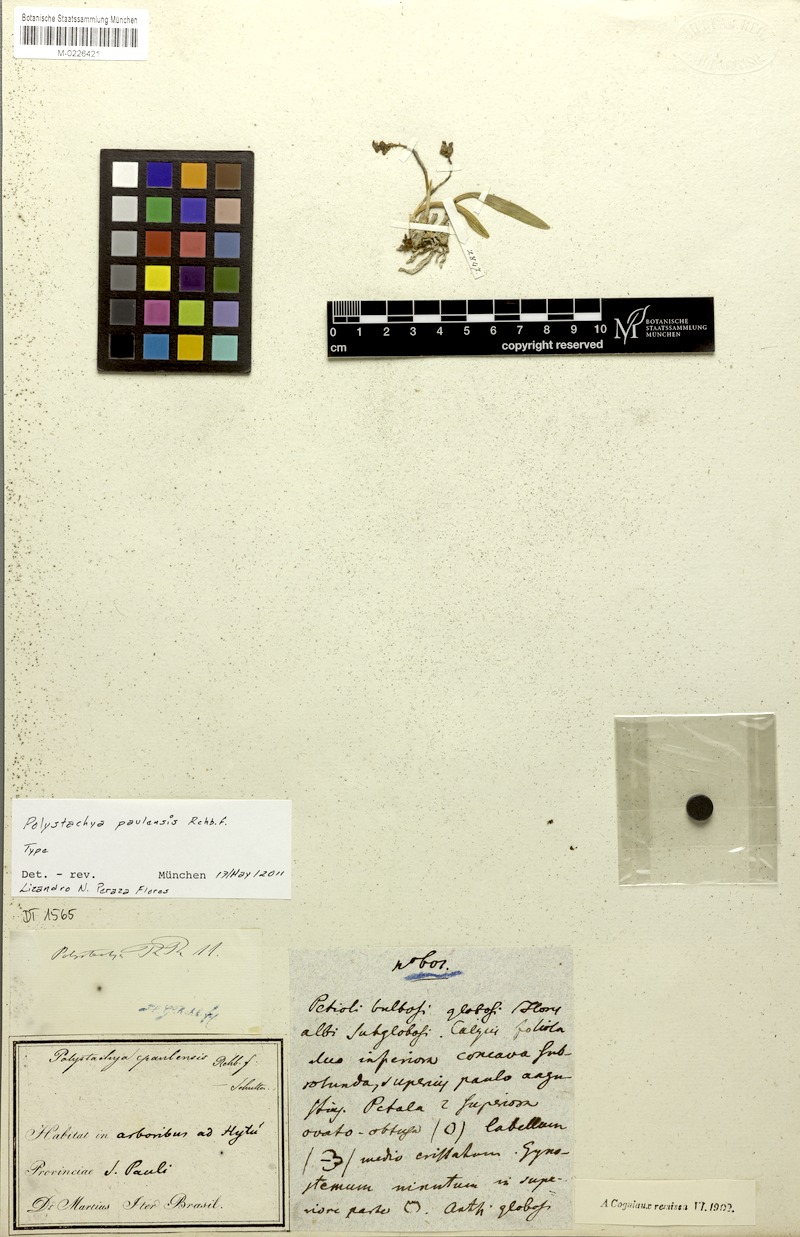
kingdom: Plantae
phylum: Tracheophyta
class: Liliopsida
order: Asparagales
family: Orchidaceae
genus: Polystachya
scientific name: Polystachya foliosa
